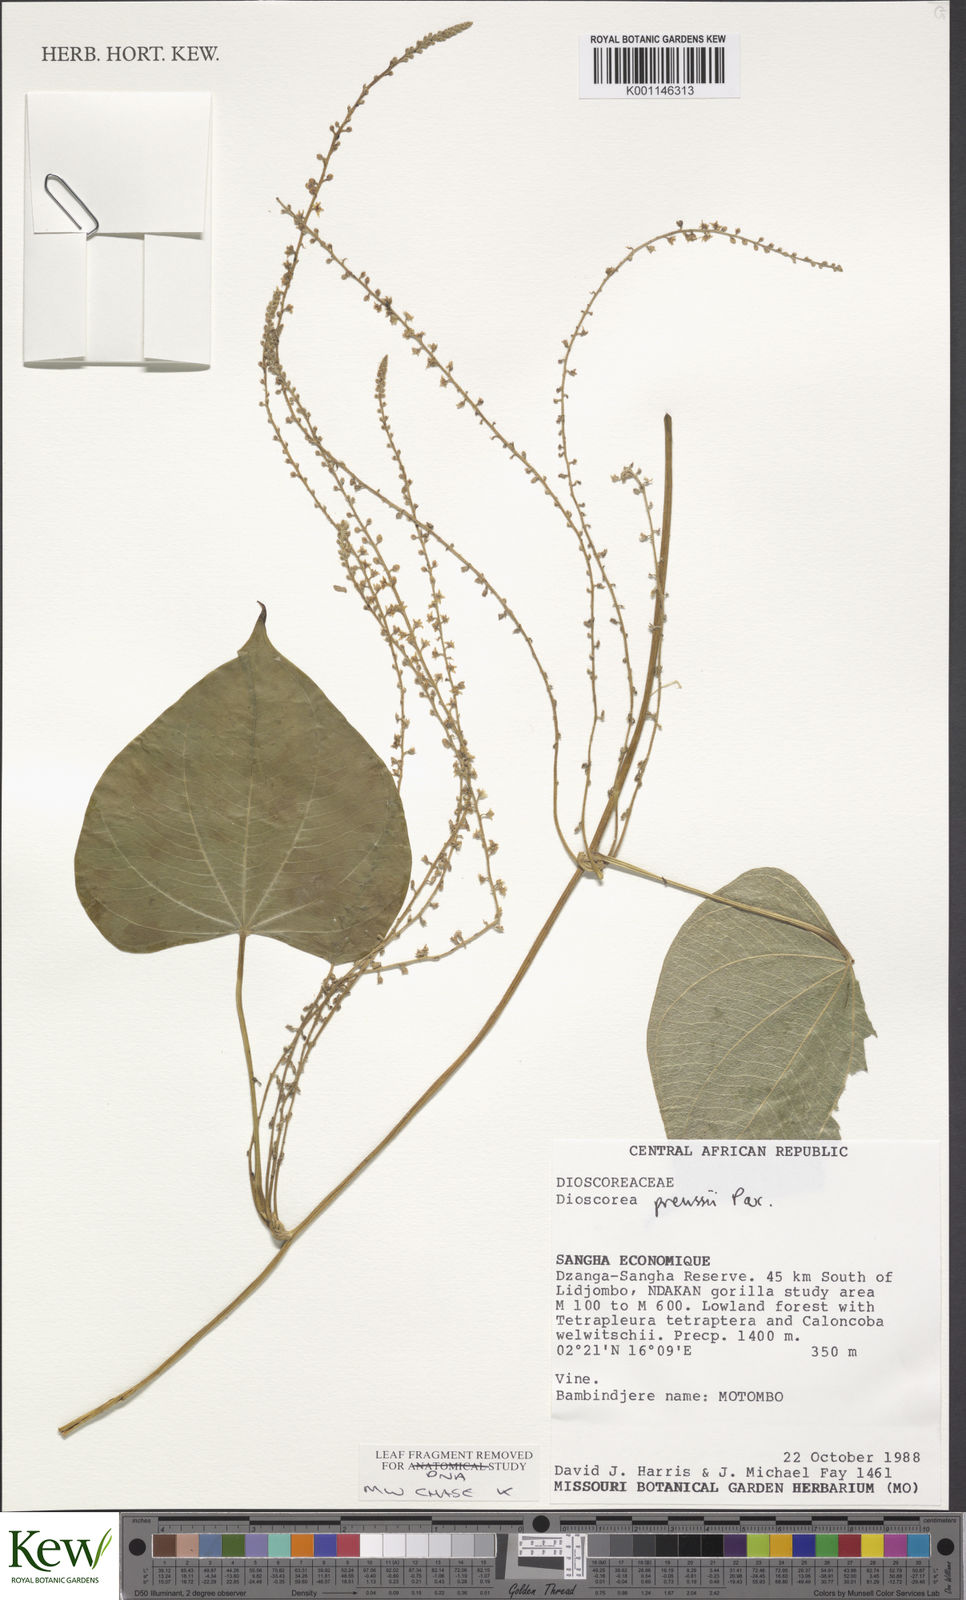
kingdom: Plantae
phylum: Tracheophyta
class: Liliopsida
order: Dioscoreales
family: Dioscoreaceae
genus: Dioscorea
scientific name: Dioscorea preussii
